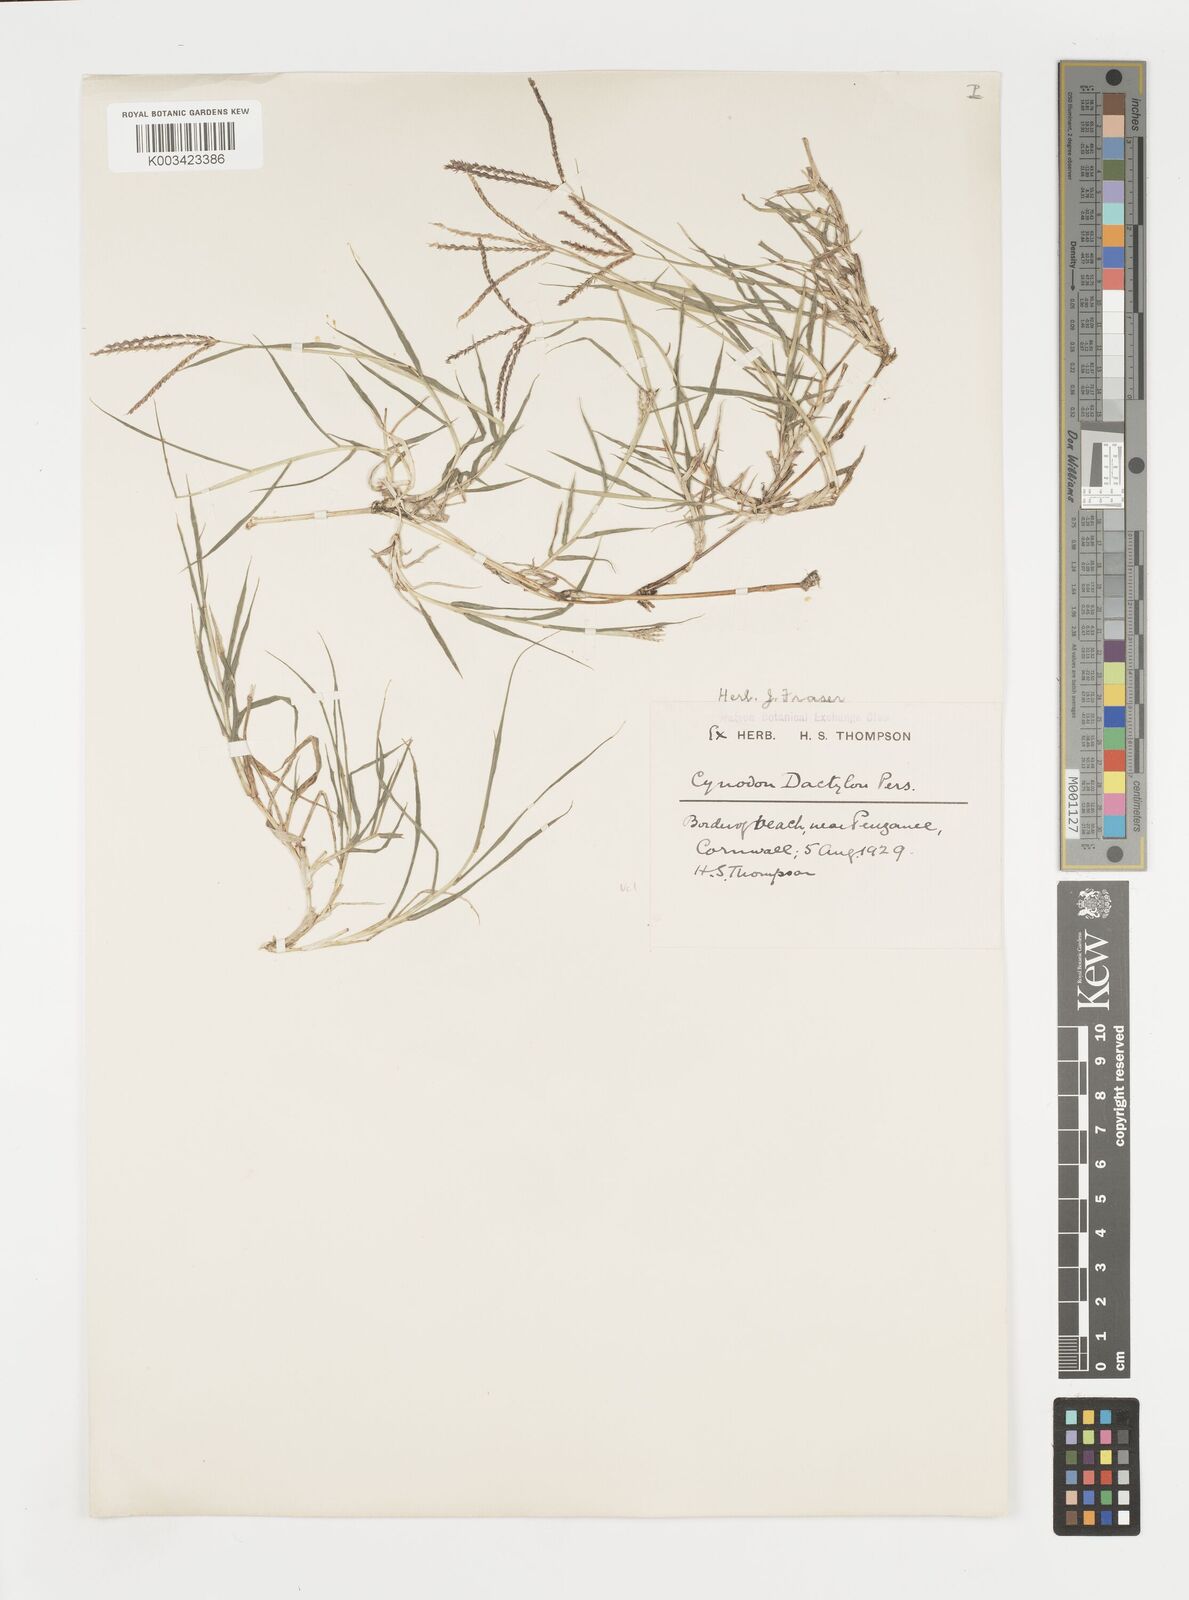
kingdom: Plantae
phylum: Tracheophyta
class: Liliopsida
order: Poales
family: Poaceae
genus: Cynodon
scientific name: Cynodon dactylon
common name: Bermuda grass
